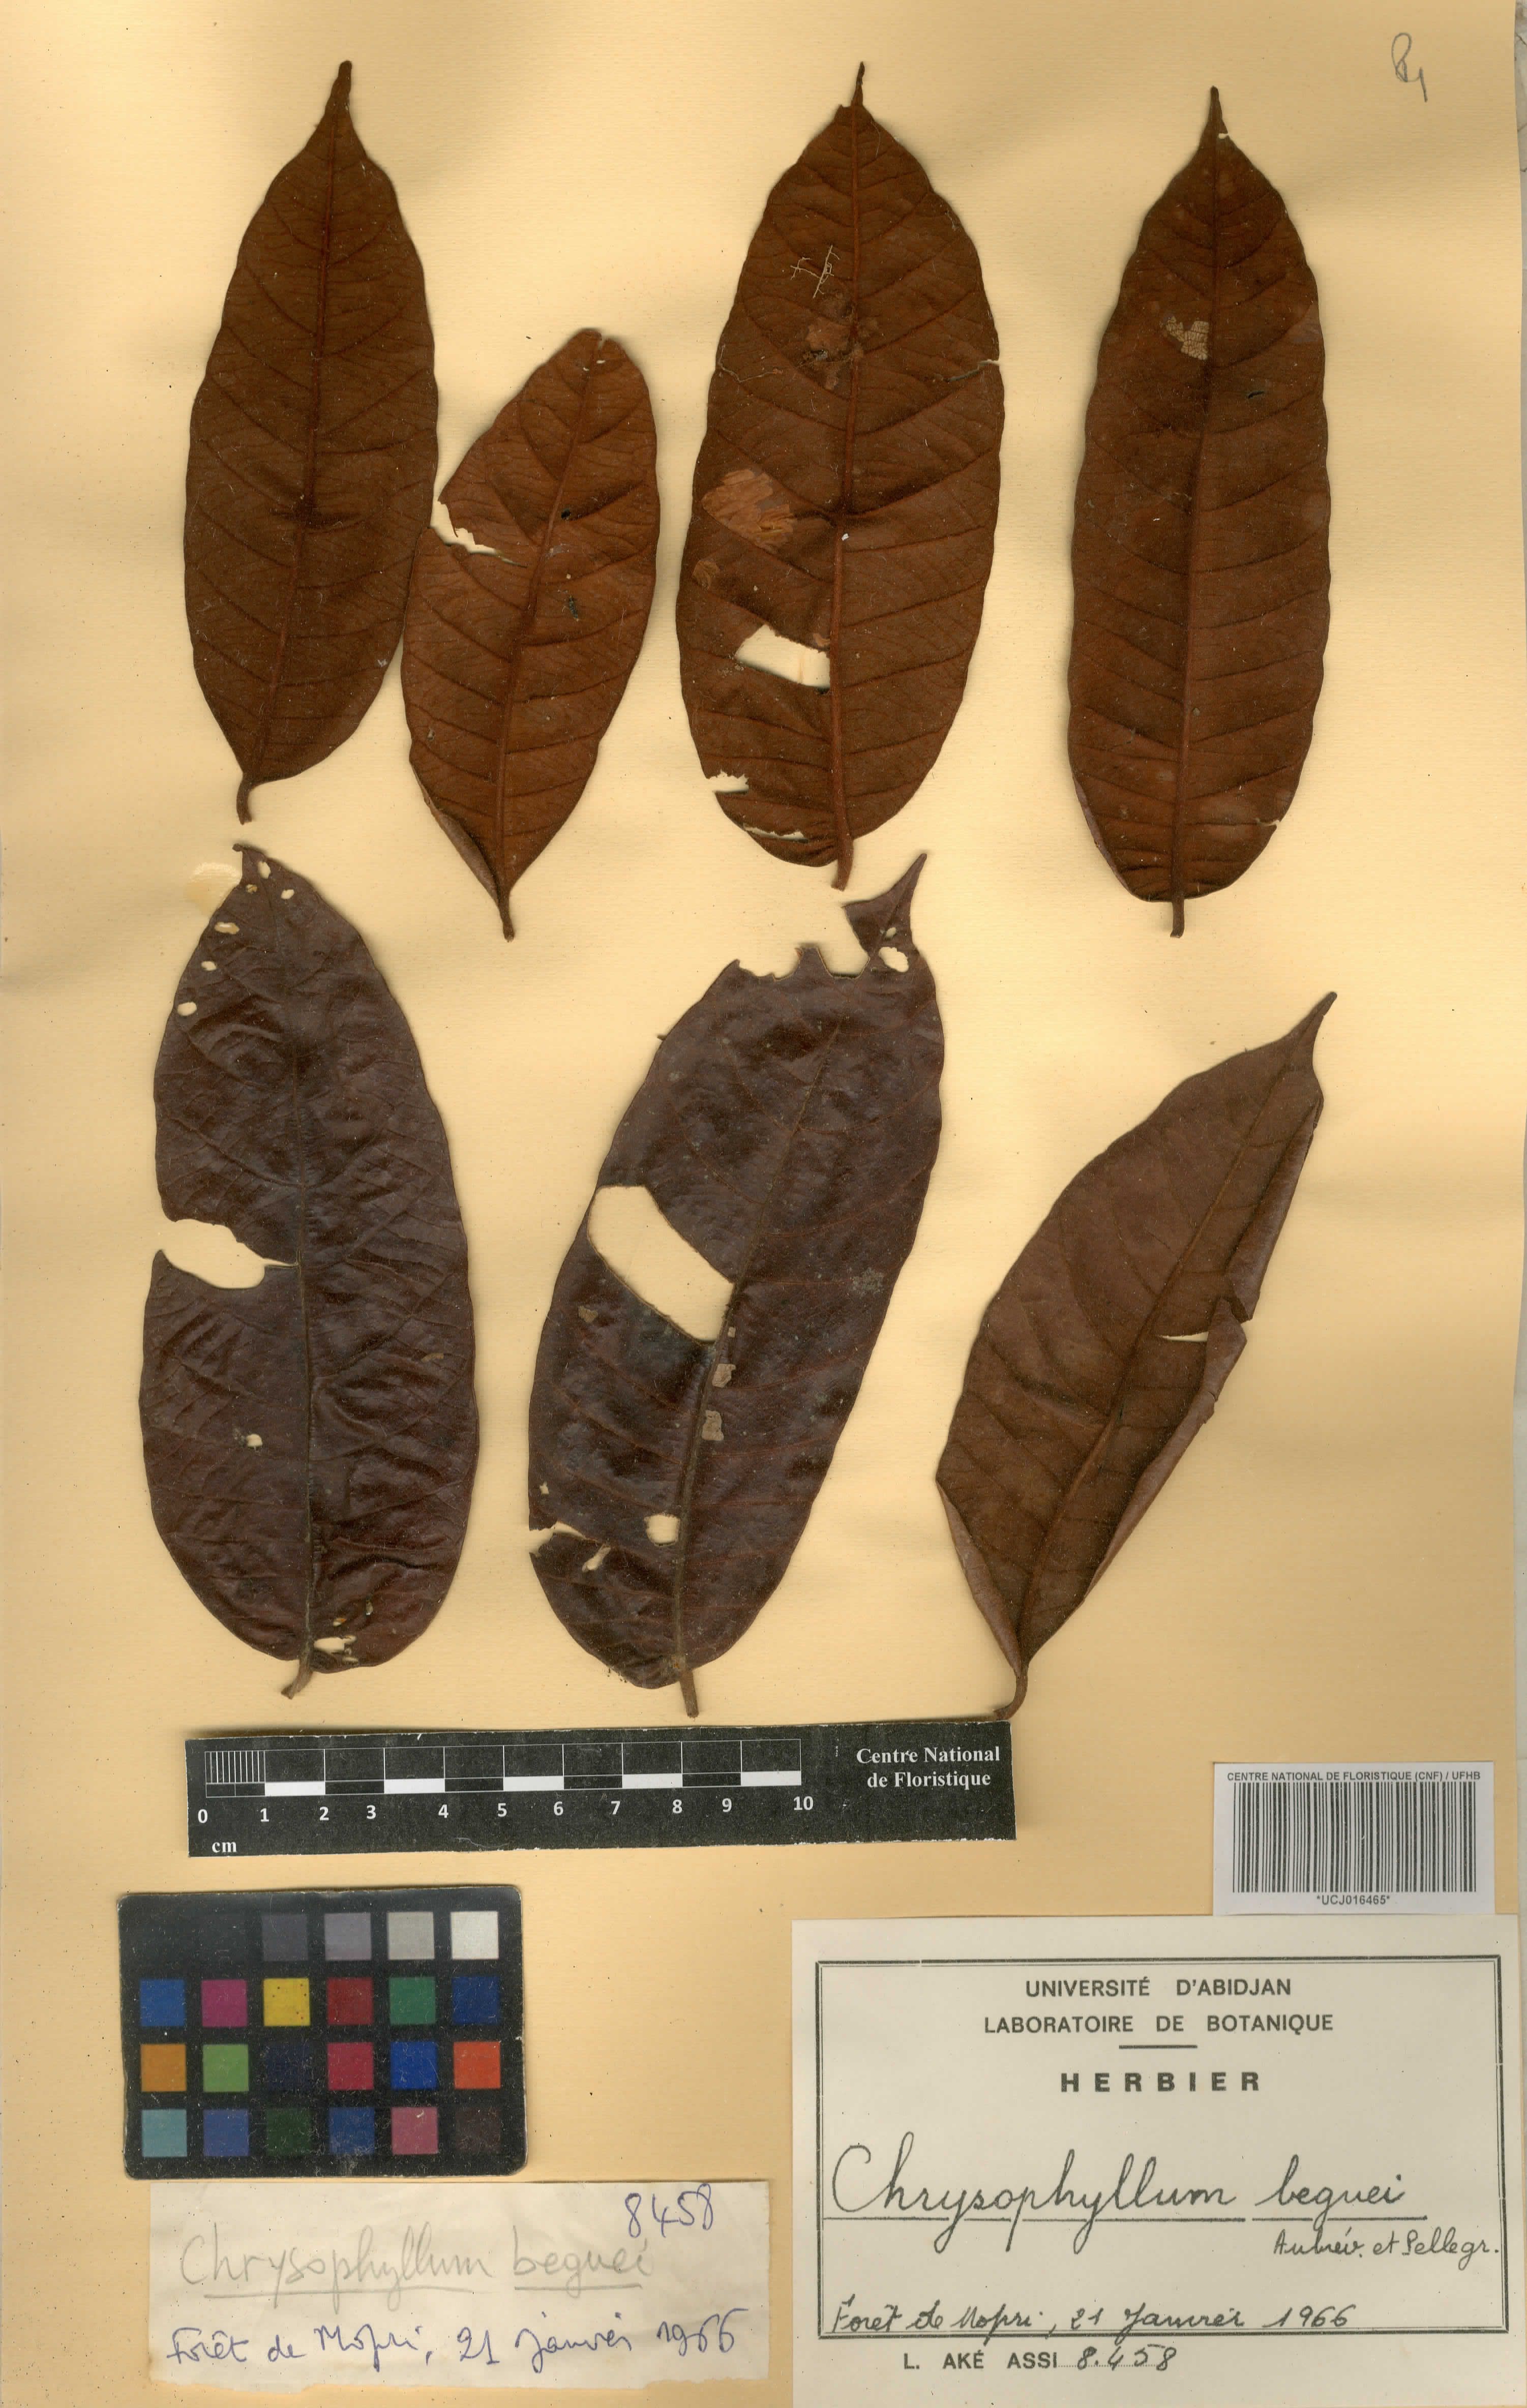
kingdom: Plantae
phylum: Tracheophyta
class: Magnoliopsida
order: Ericales
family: Sapotaceae
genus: Gambeya
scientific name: Gambeya beguei
